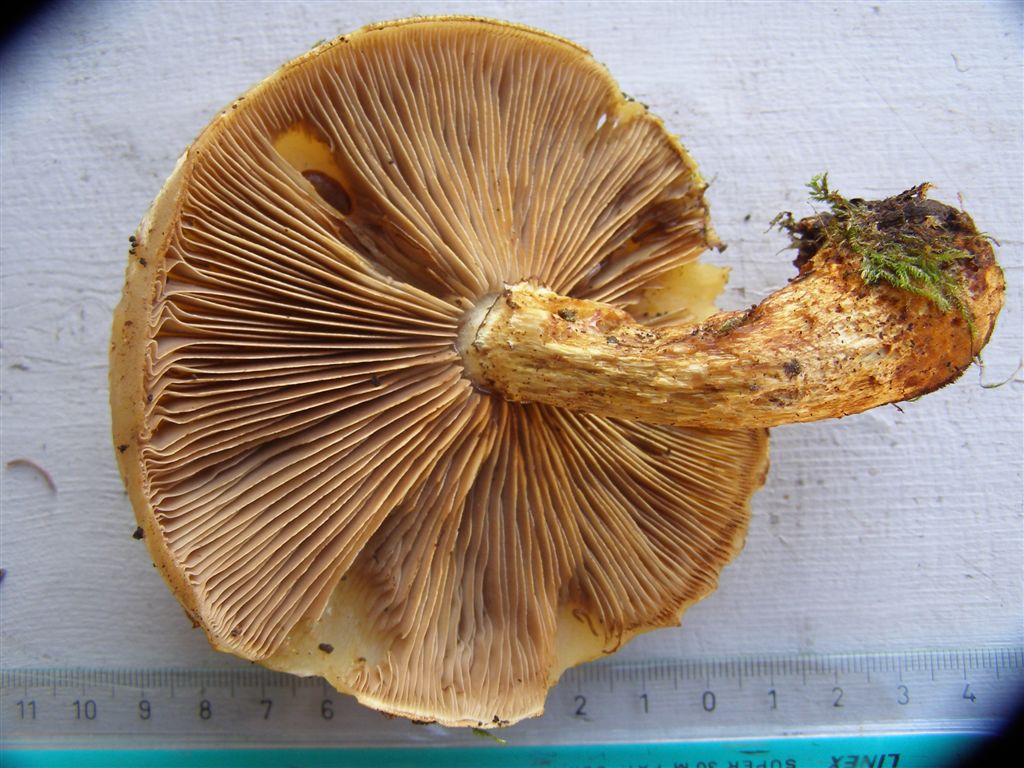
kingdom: Fungi
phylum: Basidiomycota
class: Agaricomycetes
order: Agaricales
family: Strophariaceae
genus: Pholiota
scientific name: Pholiota heteroclita
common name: duftende kæmpeskælhat
